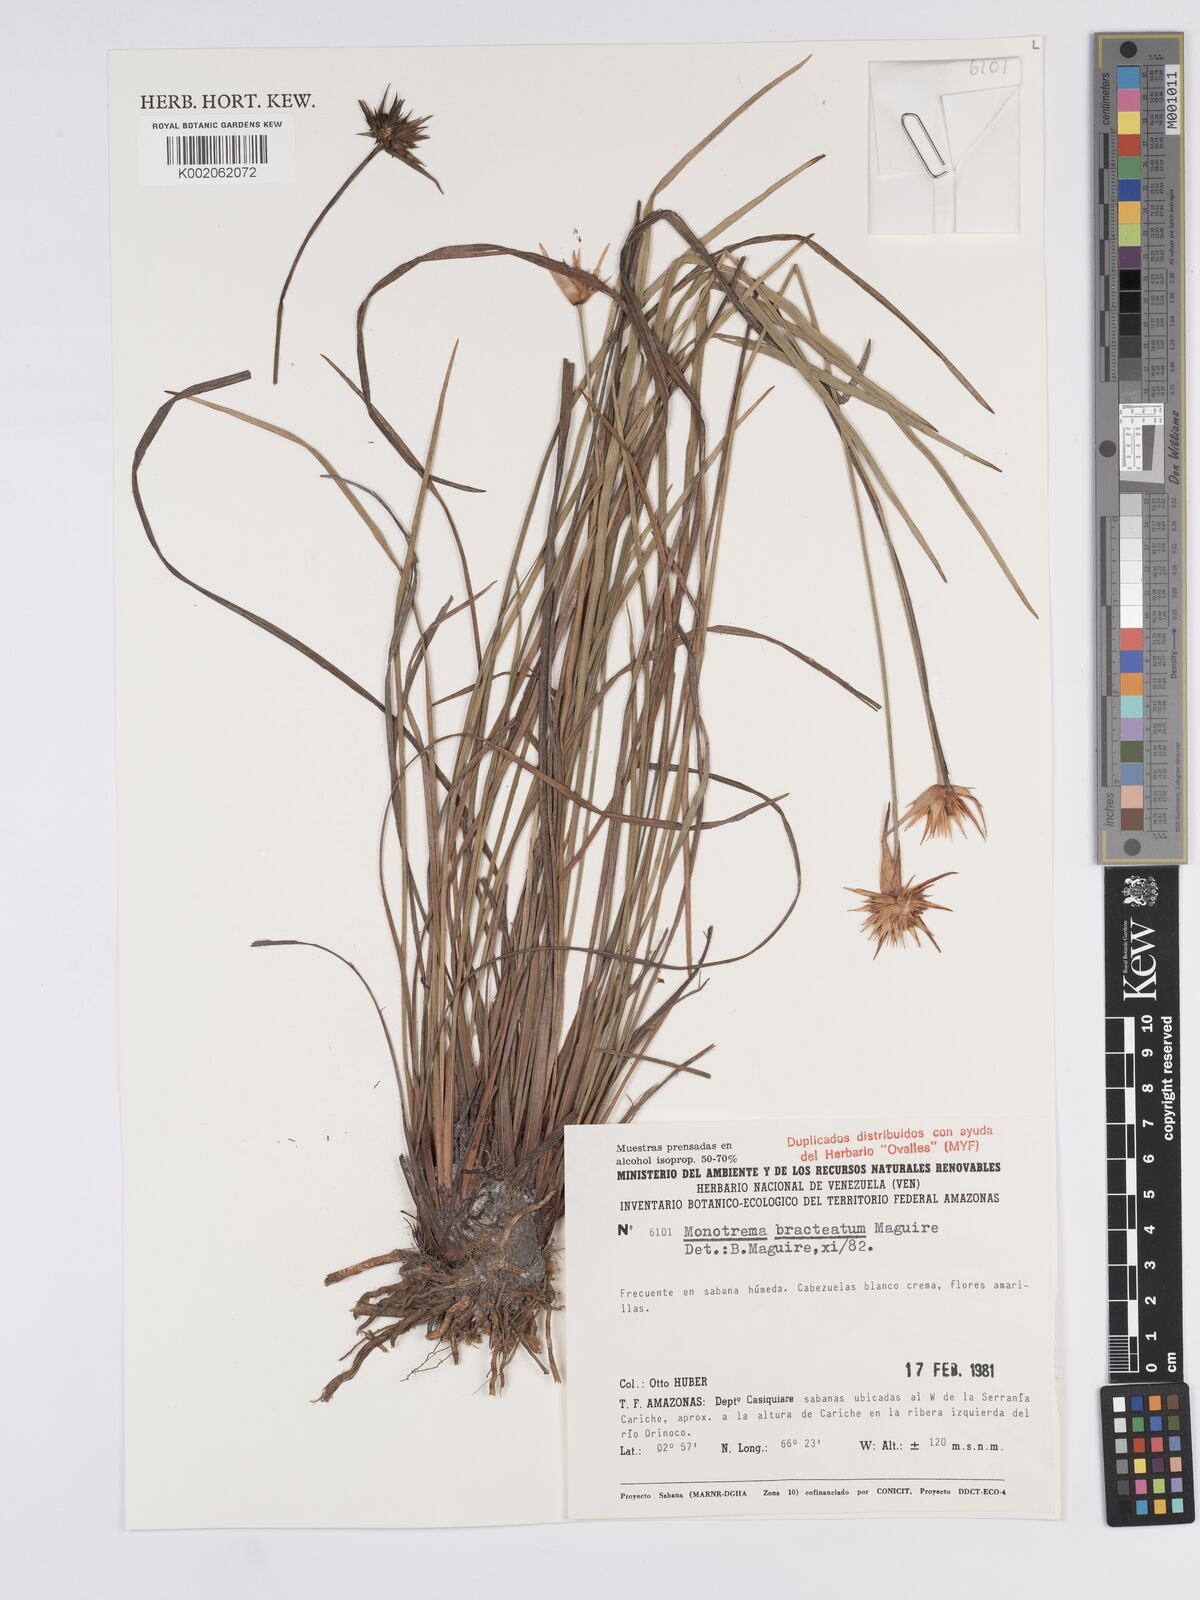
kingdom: Plantae
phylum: Tracheophyta
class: Liliopsida
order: Poales
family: Rapateaceae
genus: Monotrema
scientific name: Monotrema bracteatum
